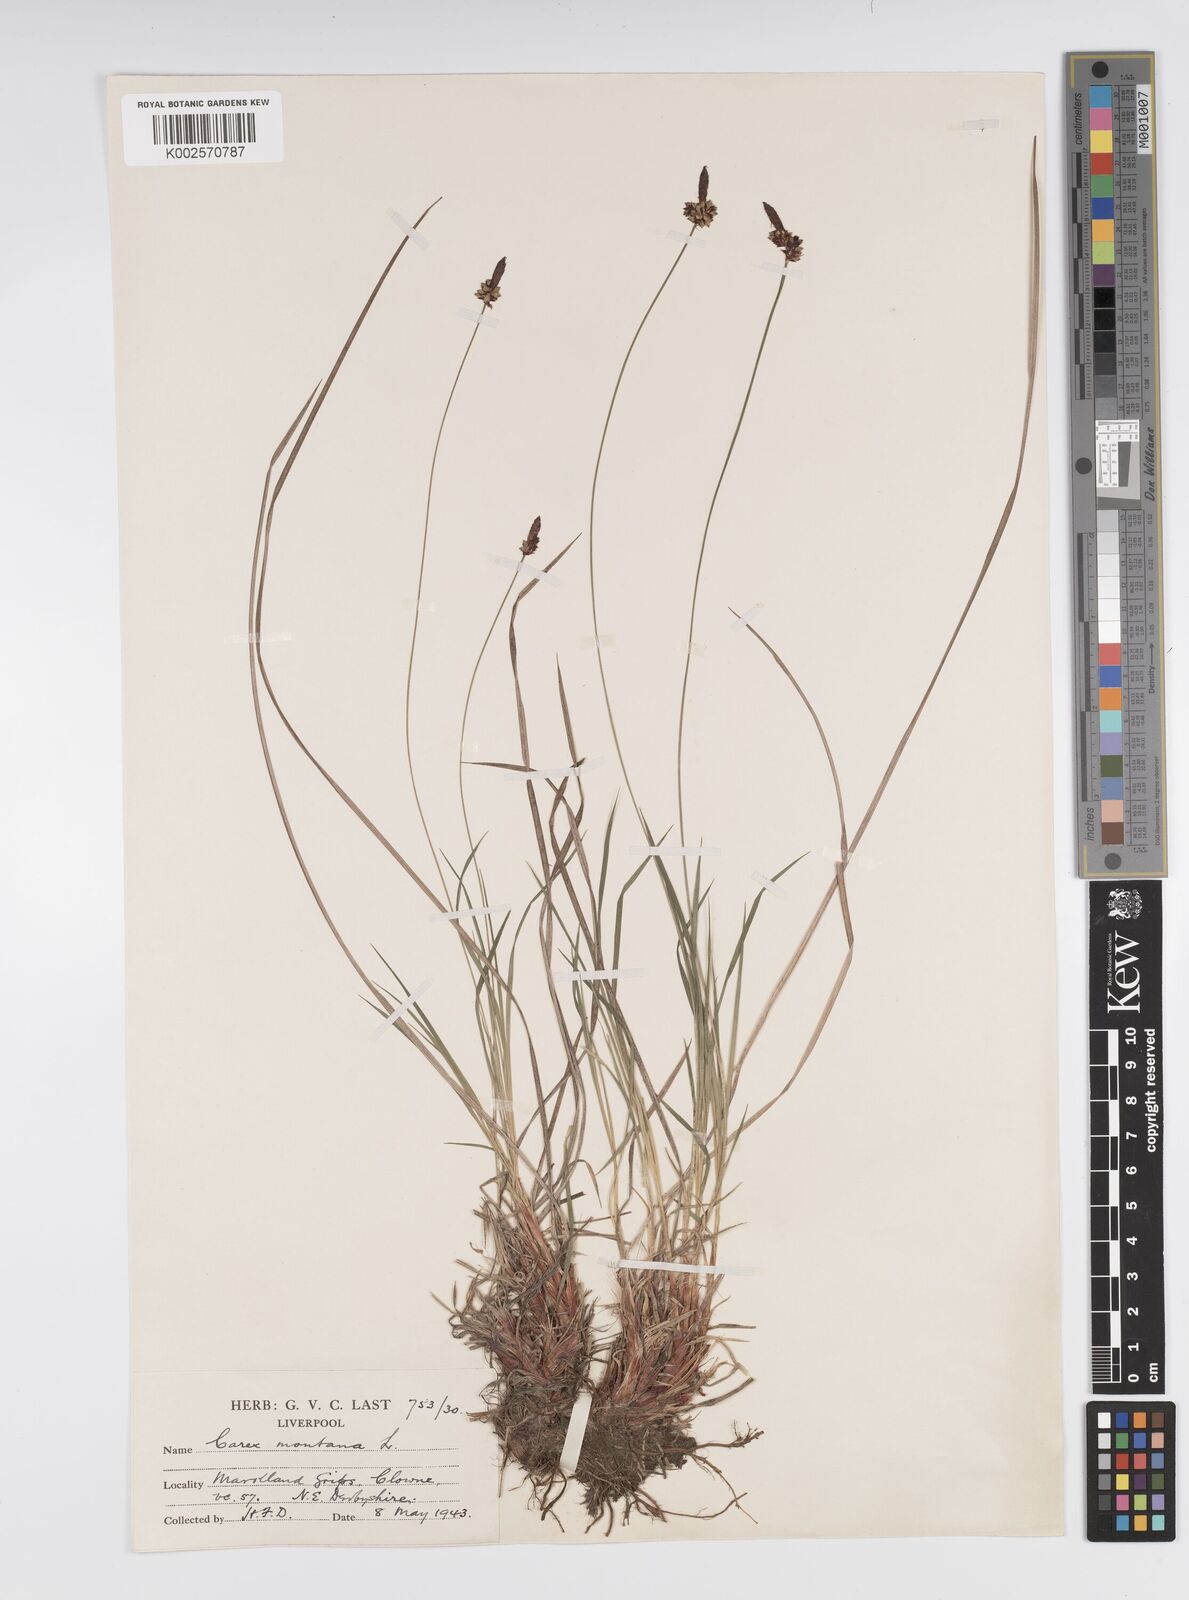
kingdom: Plantae
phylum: Tracheophyta
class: Liliopsida
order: Poales
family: Cyperaceae
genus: Carex
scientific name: Carex montana
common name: Soft-leaved sedge
